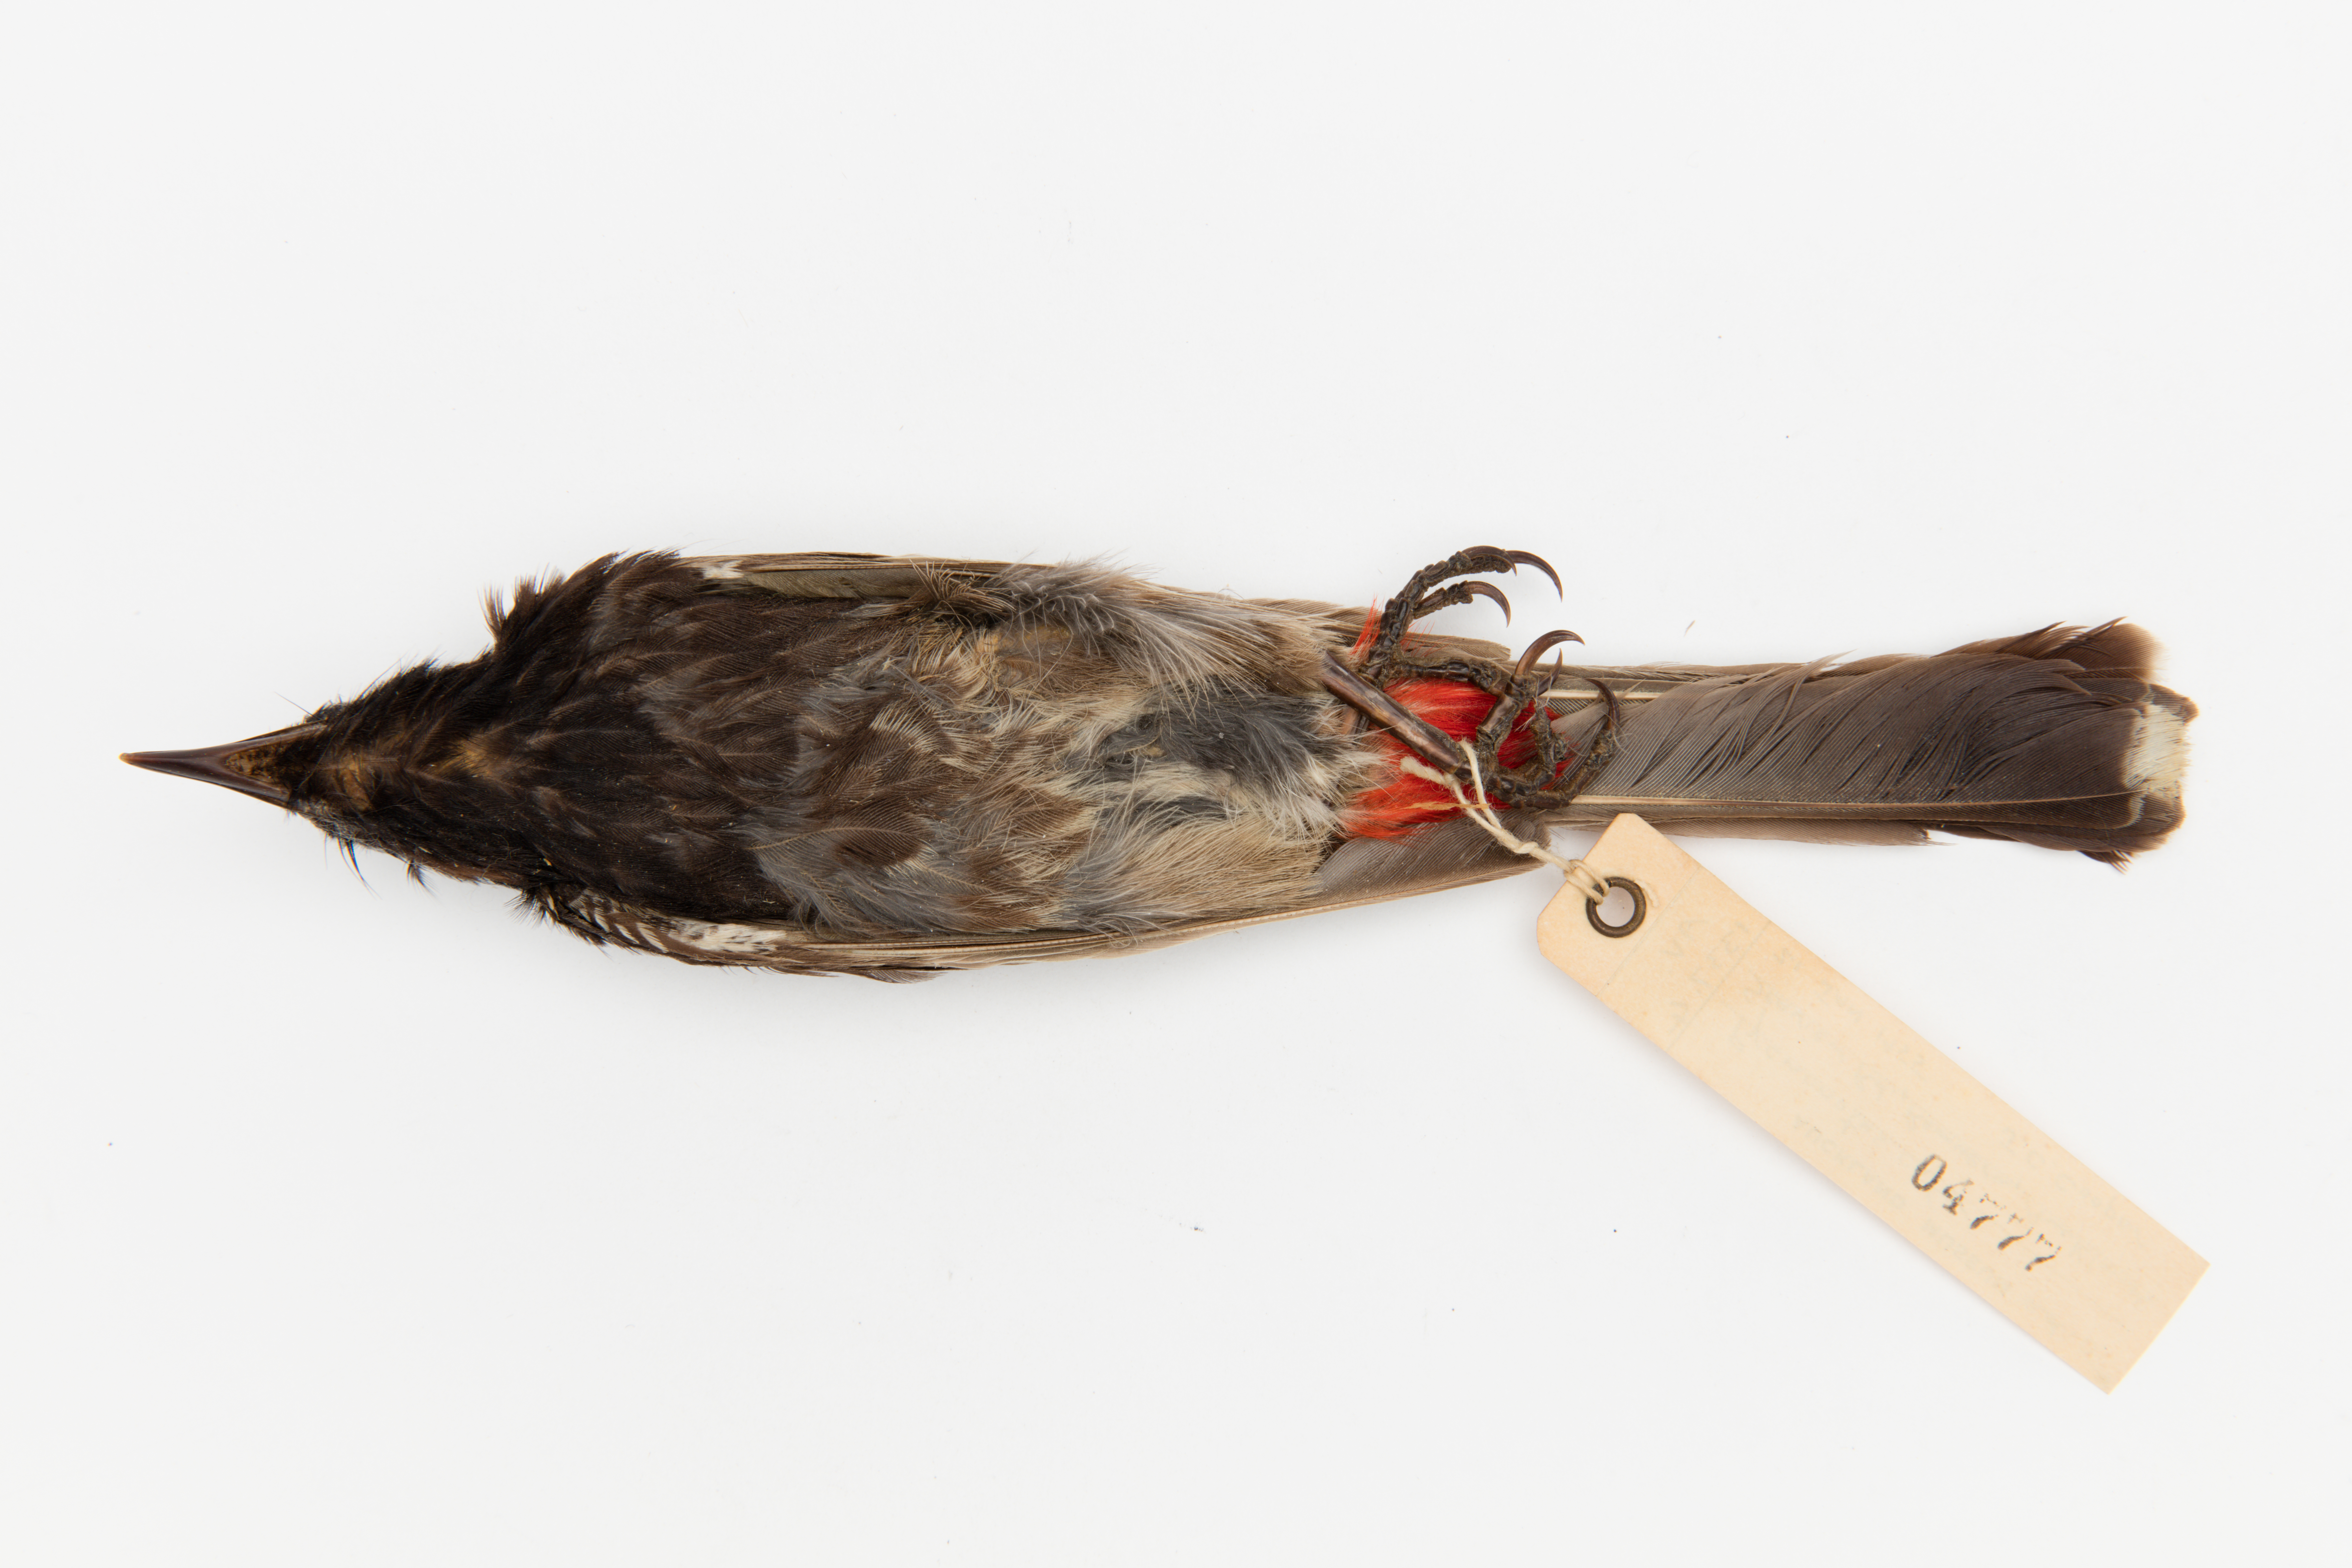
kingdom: Animalia
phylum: Chordata
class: Aves
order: Passeriformes
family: Pycnonotidae
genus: Pycnonotus
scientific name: Pycnonotus cafer
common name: Red-vented bulbul
